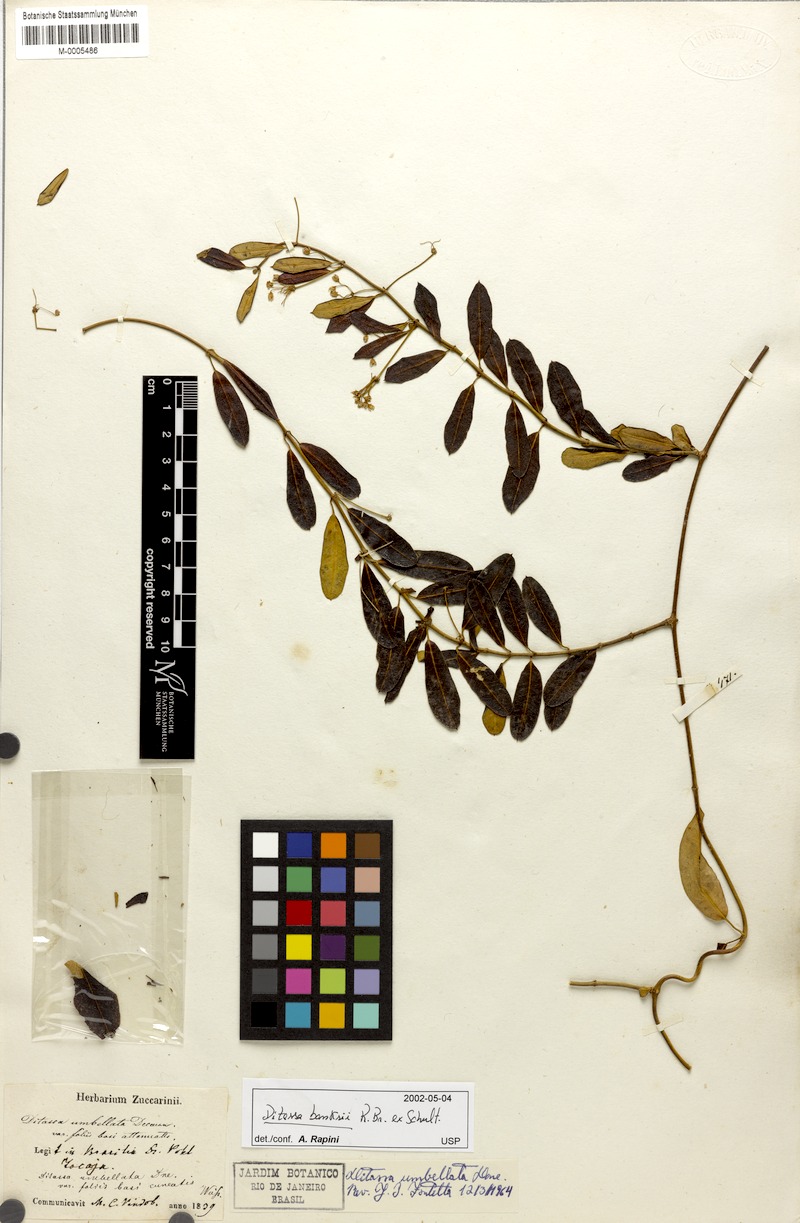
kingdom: Plantae
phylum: Tracheophyta
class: Magnoliopsida
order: Gentianales
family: Apocynaceae
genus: Ditassa
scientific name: Ditassa banksii
